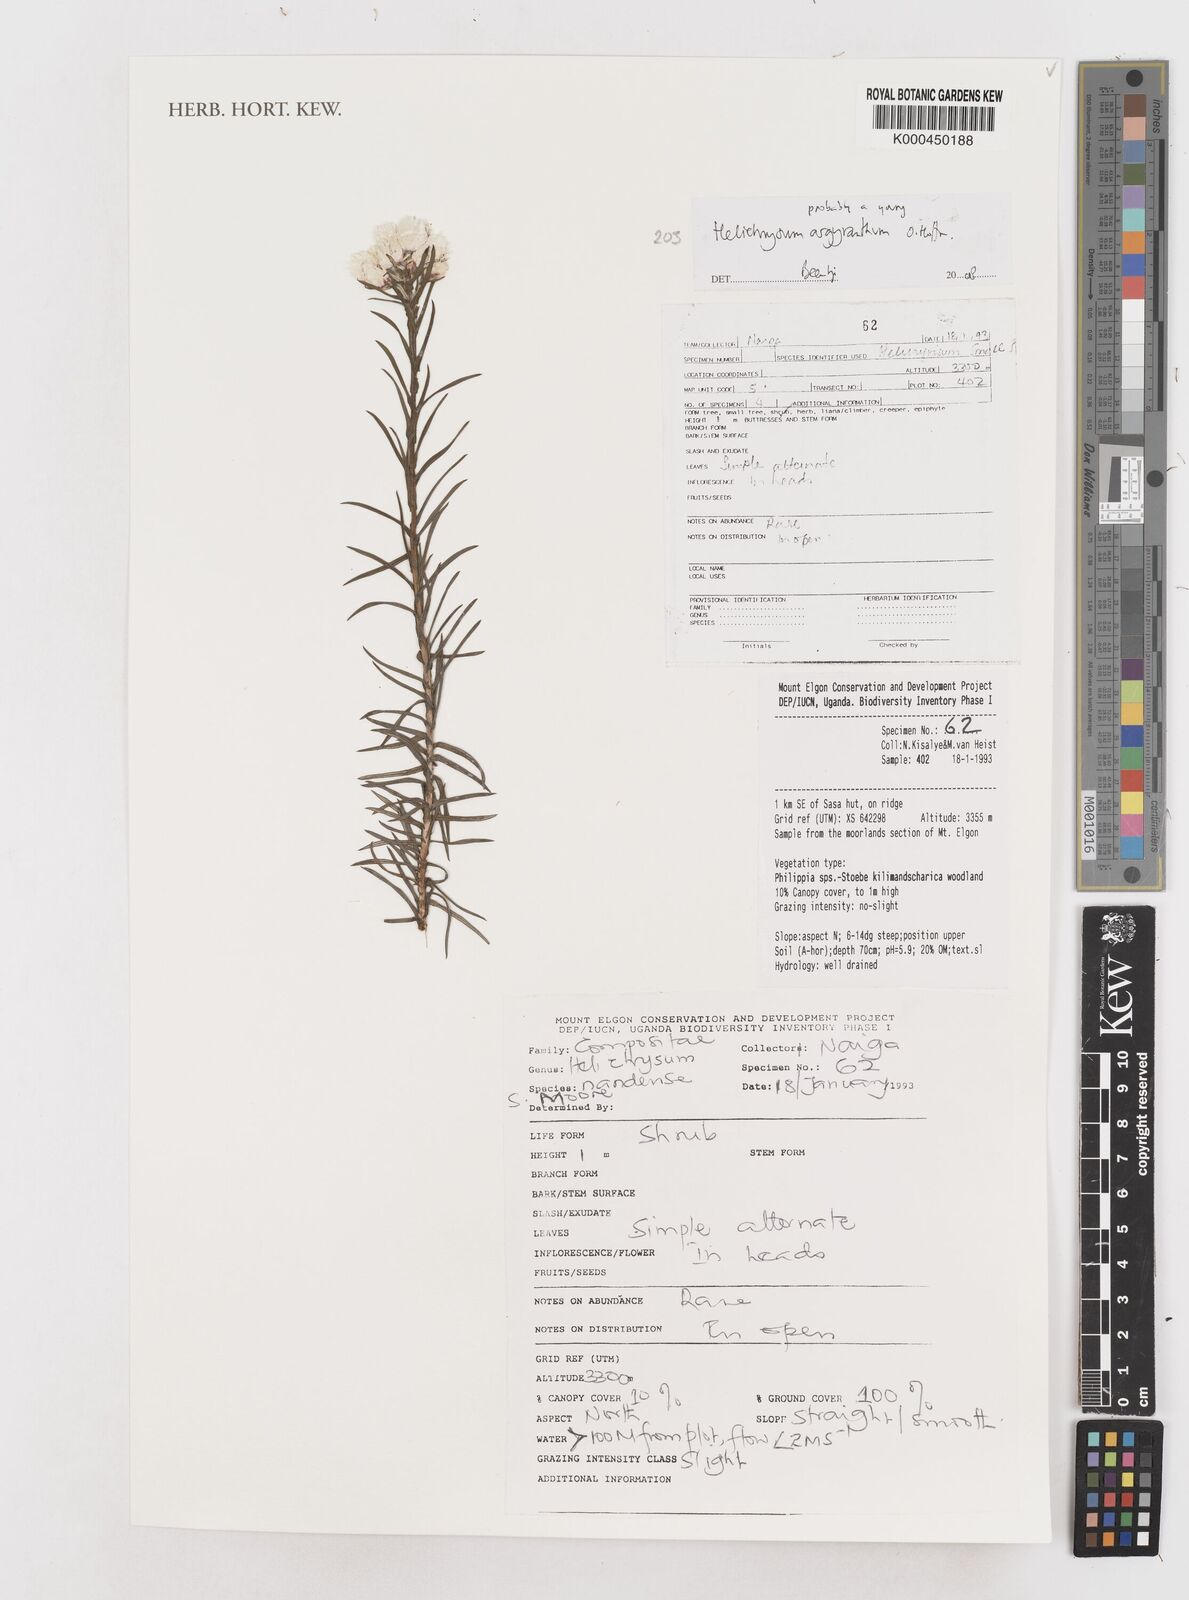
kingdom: Plantae
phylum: Tracheophyta
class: Magnoliopsida
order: Asterales
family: Asteraceae
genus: Helichrysum
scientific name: Helichrysum argyranthum
